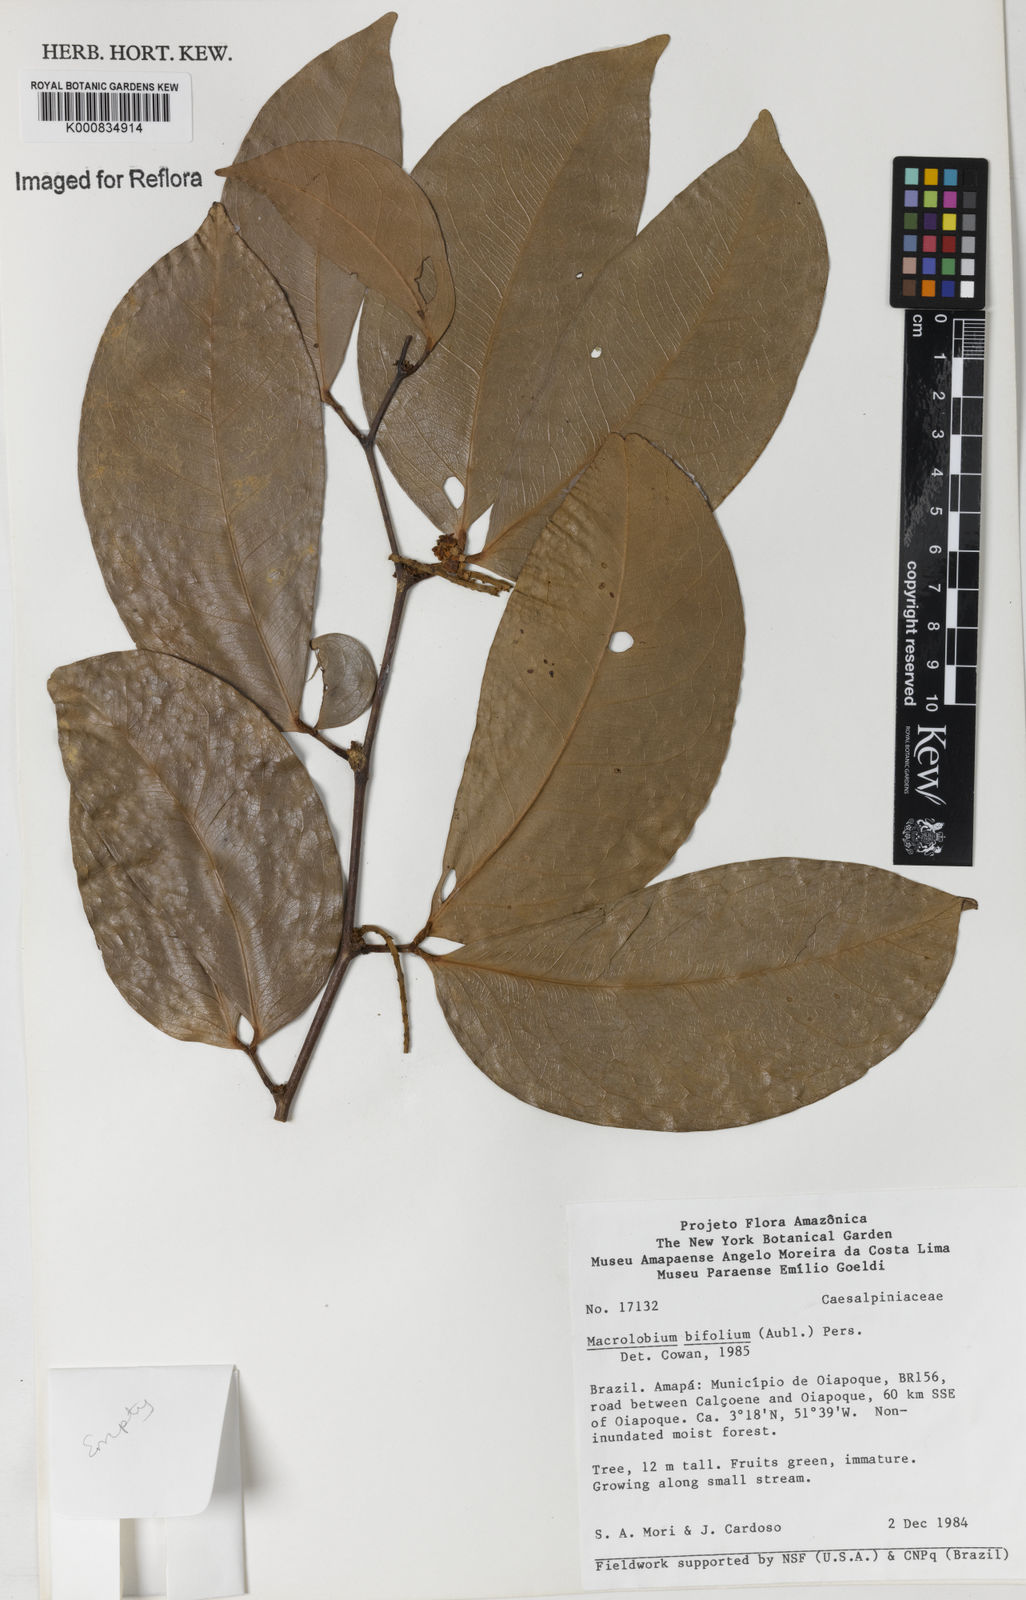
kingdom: Plantae
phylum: Tracheophyta
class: Magnoliopsida
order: Fabales
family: Fabaceae
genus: Macrolobium
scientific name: Macrolobium bifolium
